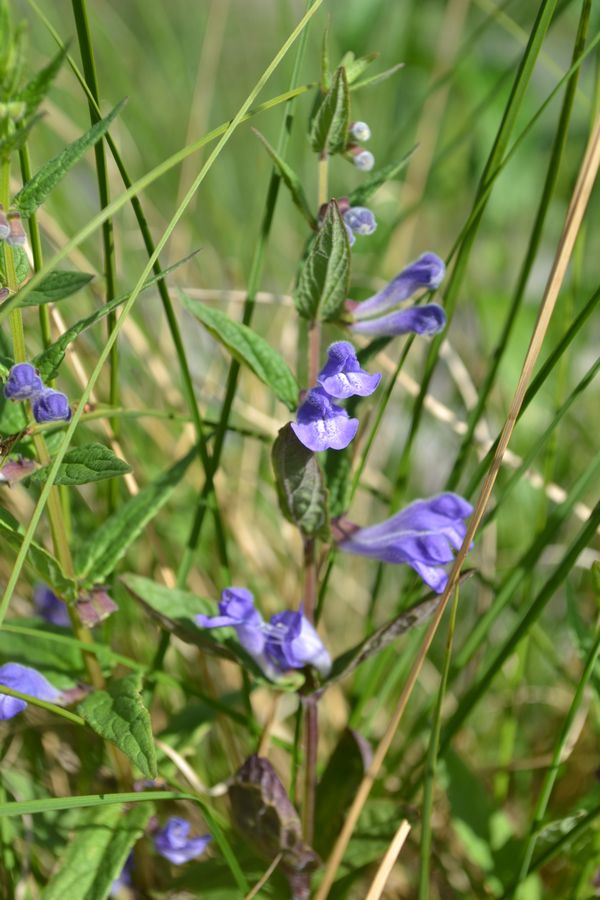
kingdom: Plantae
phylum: Tracheophyta
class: Magnoliopsida
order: Lamiales
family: Lamiaceae
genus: Scutellaria
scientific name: Scutellaria galericulata
